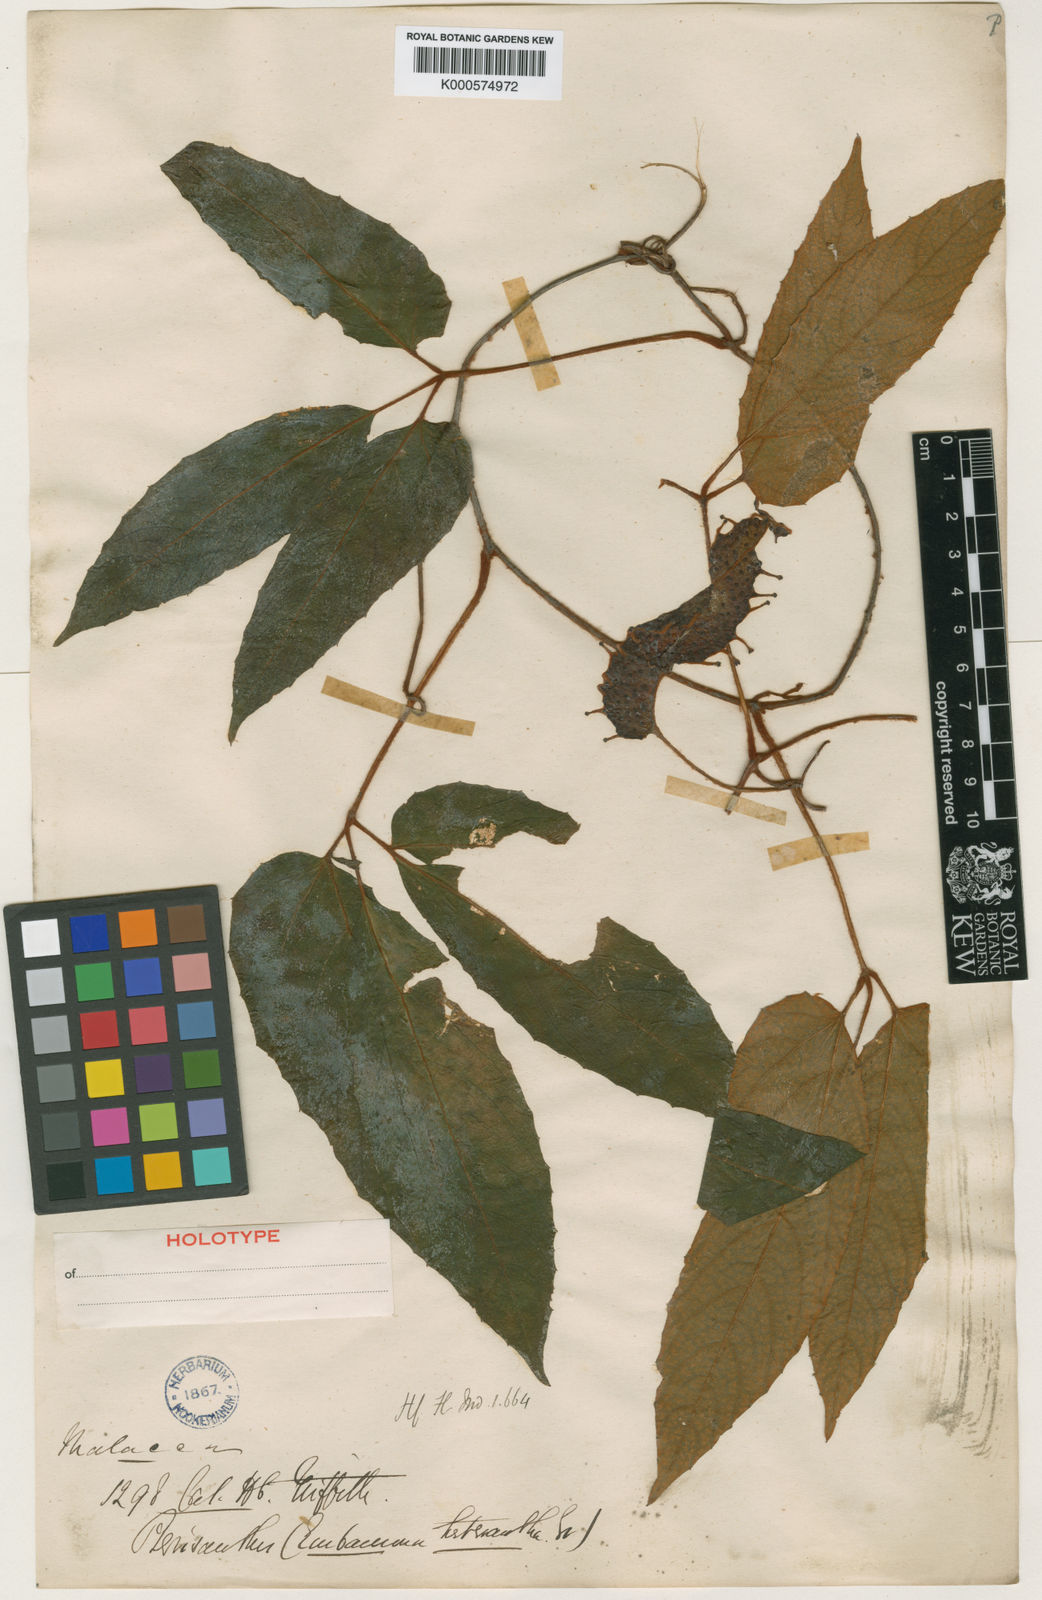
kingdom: Plantae
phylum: Tracheophyta
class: Magnoliopsida
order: Vitales
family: Vitaceae
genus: Pterisanthes
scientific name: Pterisanthes heterantha
